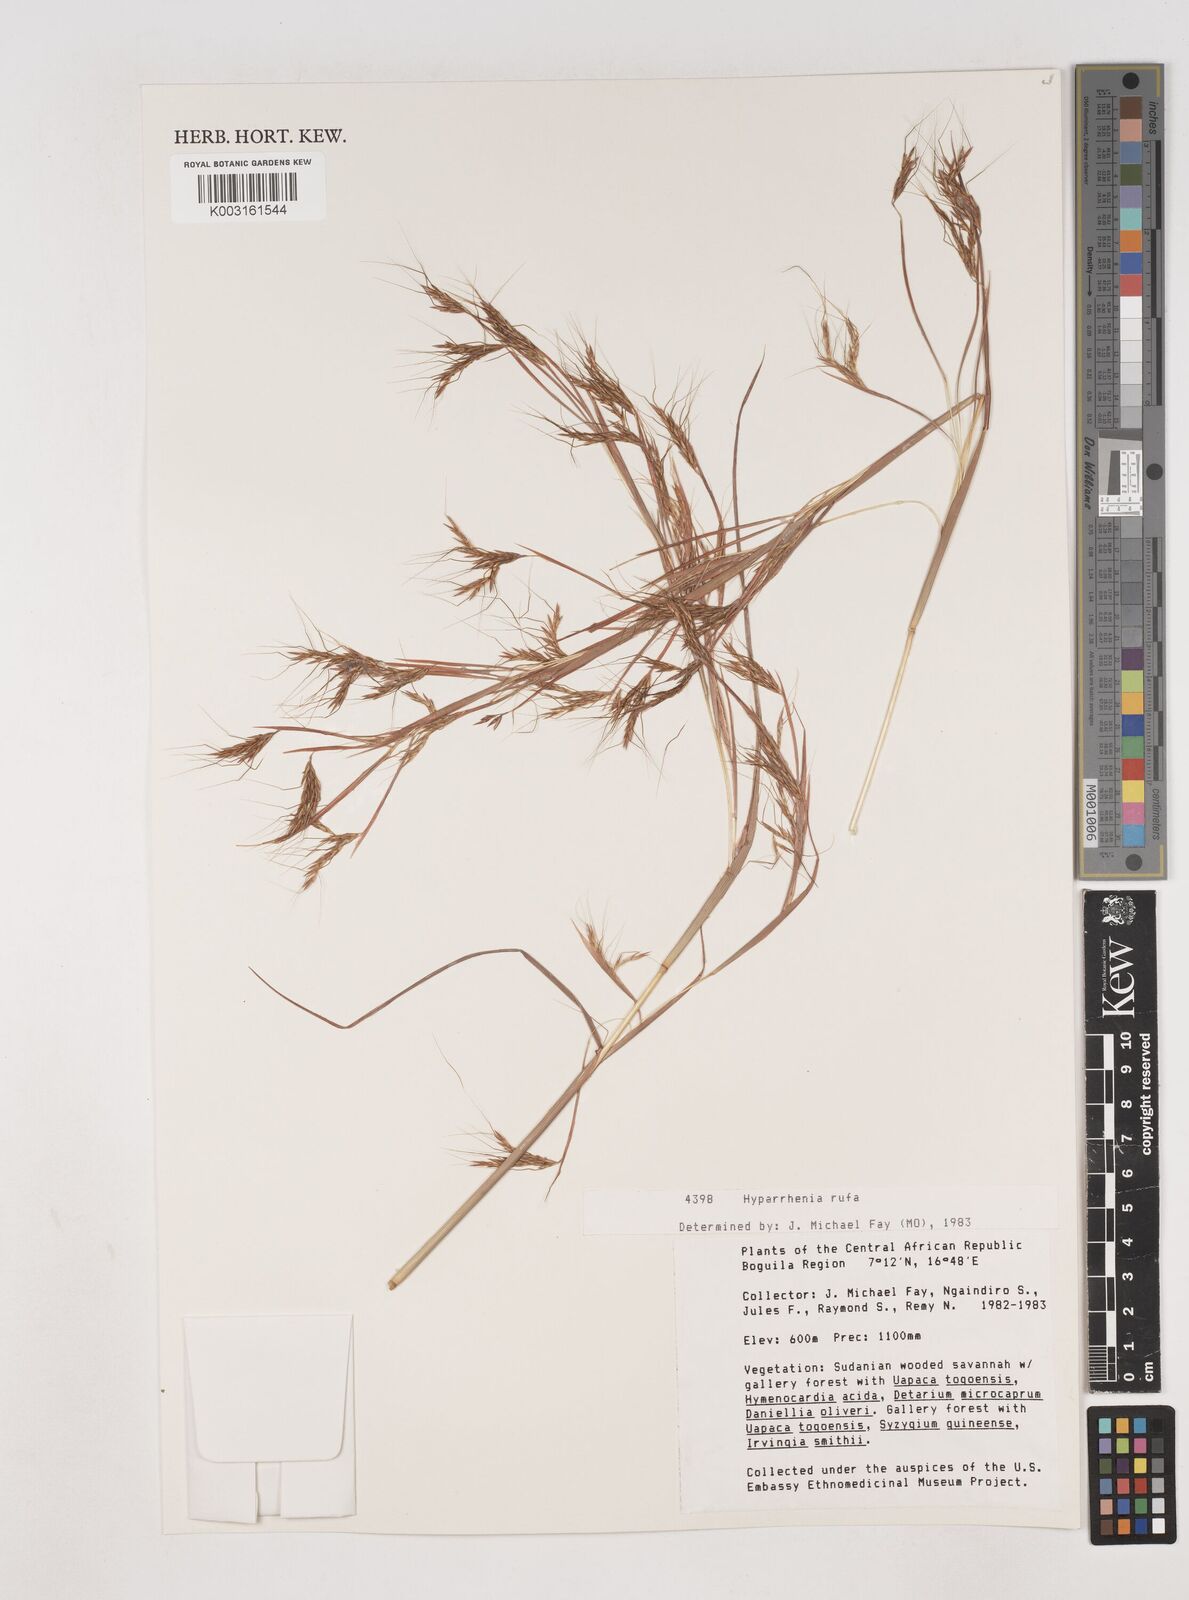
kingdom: Plantae
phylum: Tracheophyta
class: Liliopsida
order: Poales
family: Poaceae
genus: Hyparrhenia
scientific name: Hyparrhenia rufa
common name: Jaraguagrass
